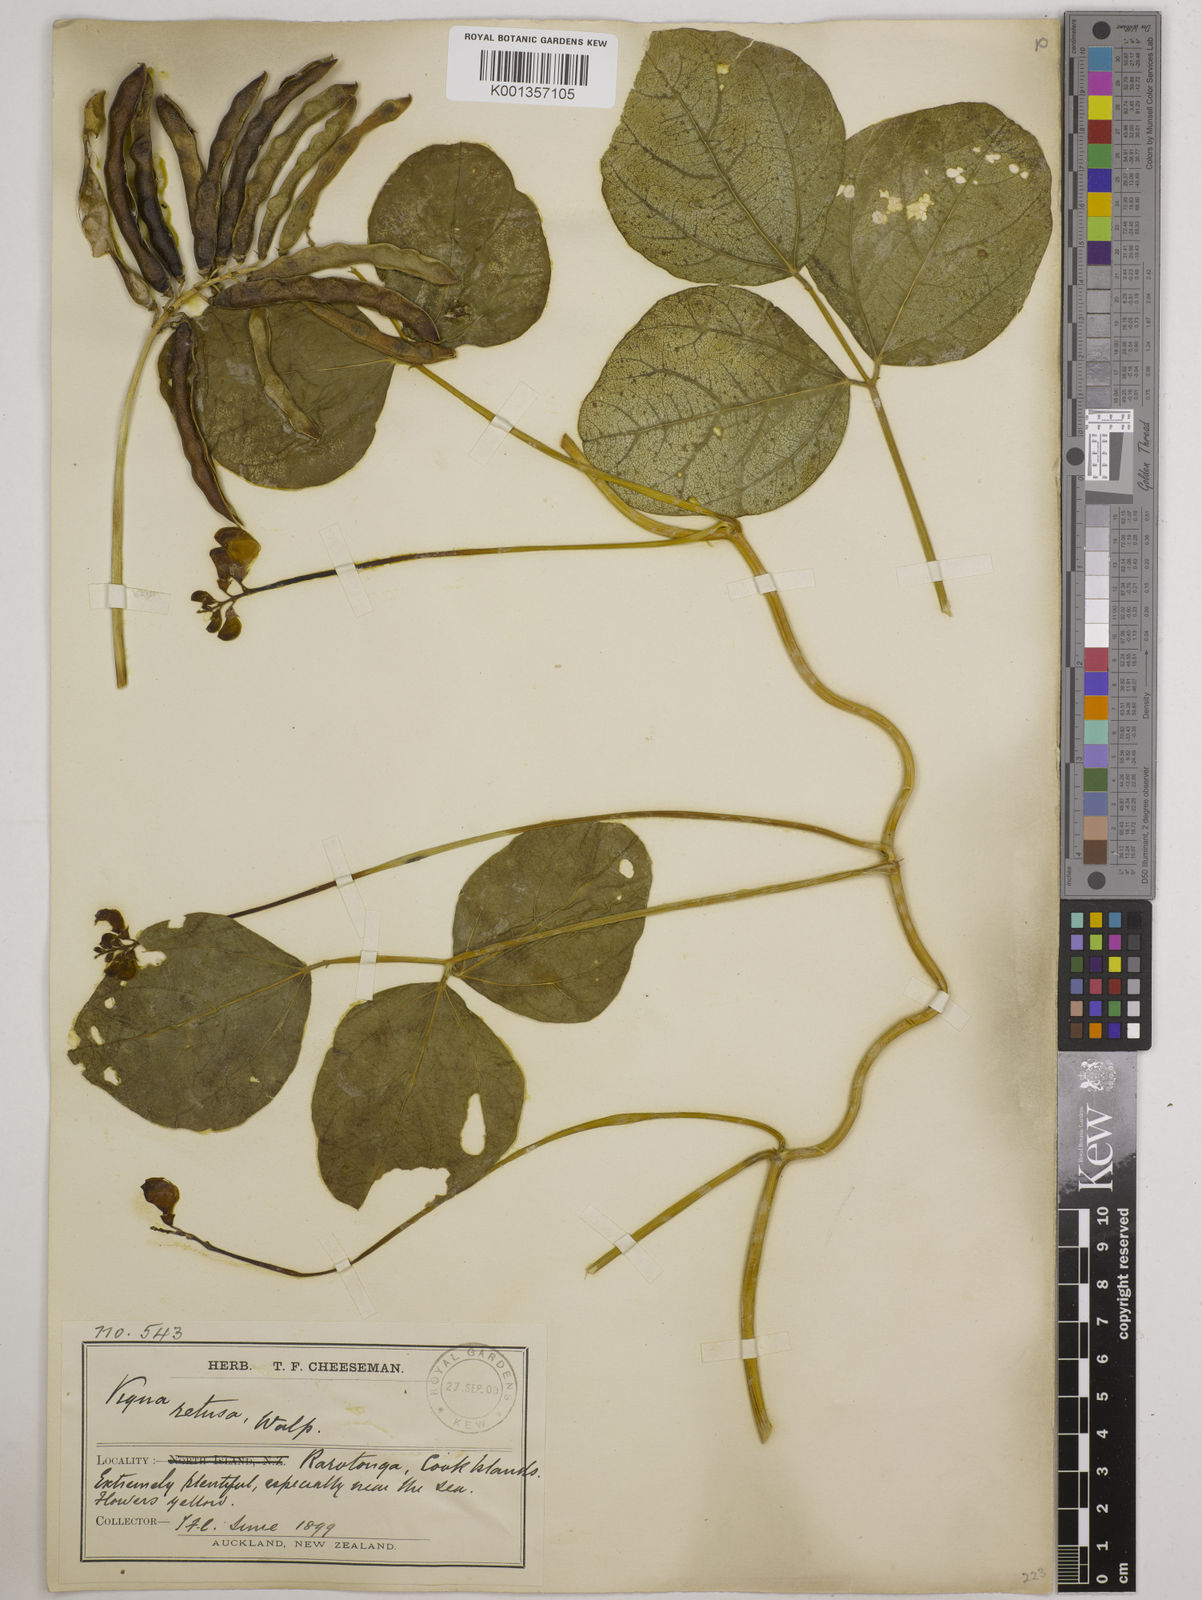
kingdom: Plantae
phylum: Tracheophyta
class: Magnoliopsida
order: Fabales
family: Fabaceae
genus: Vigna
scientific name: Vigna marina
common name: Dune-bean
